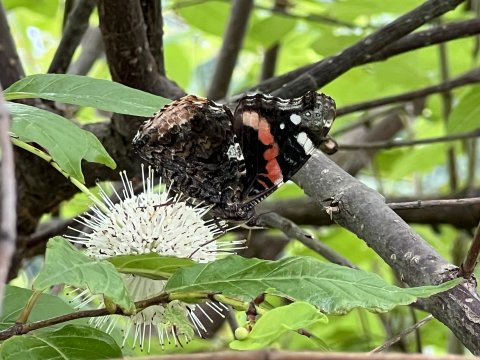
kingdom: Animalia
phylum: Arthropoda
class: Insecta
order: Lepidoptera
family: Nymphalidae
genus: Vanessa
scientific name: Vanessa atalanta
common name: Red Admiral
